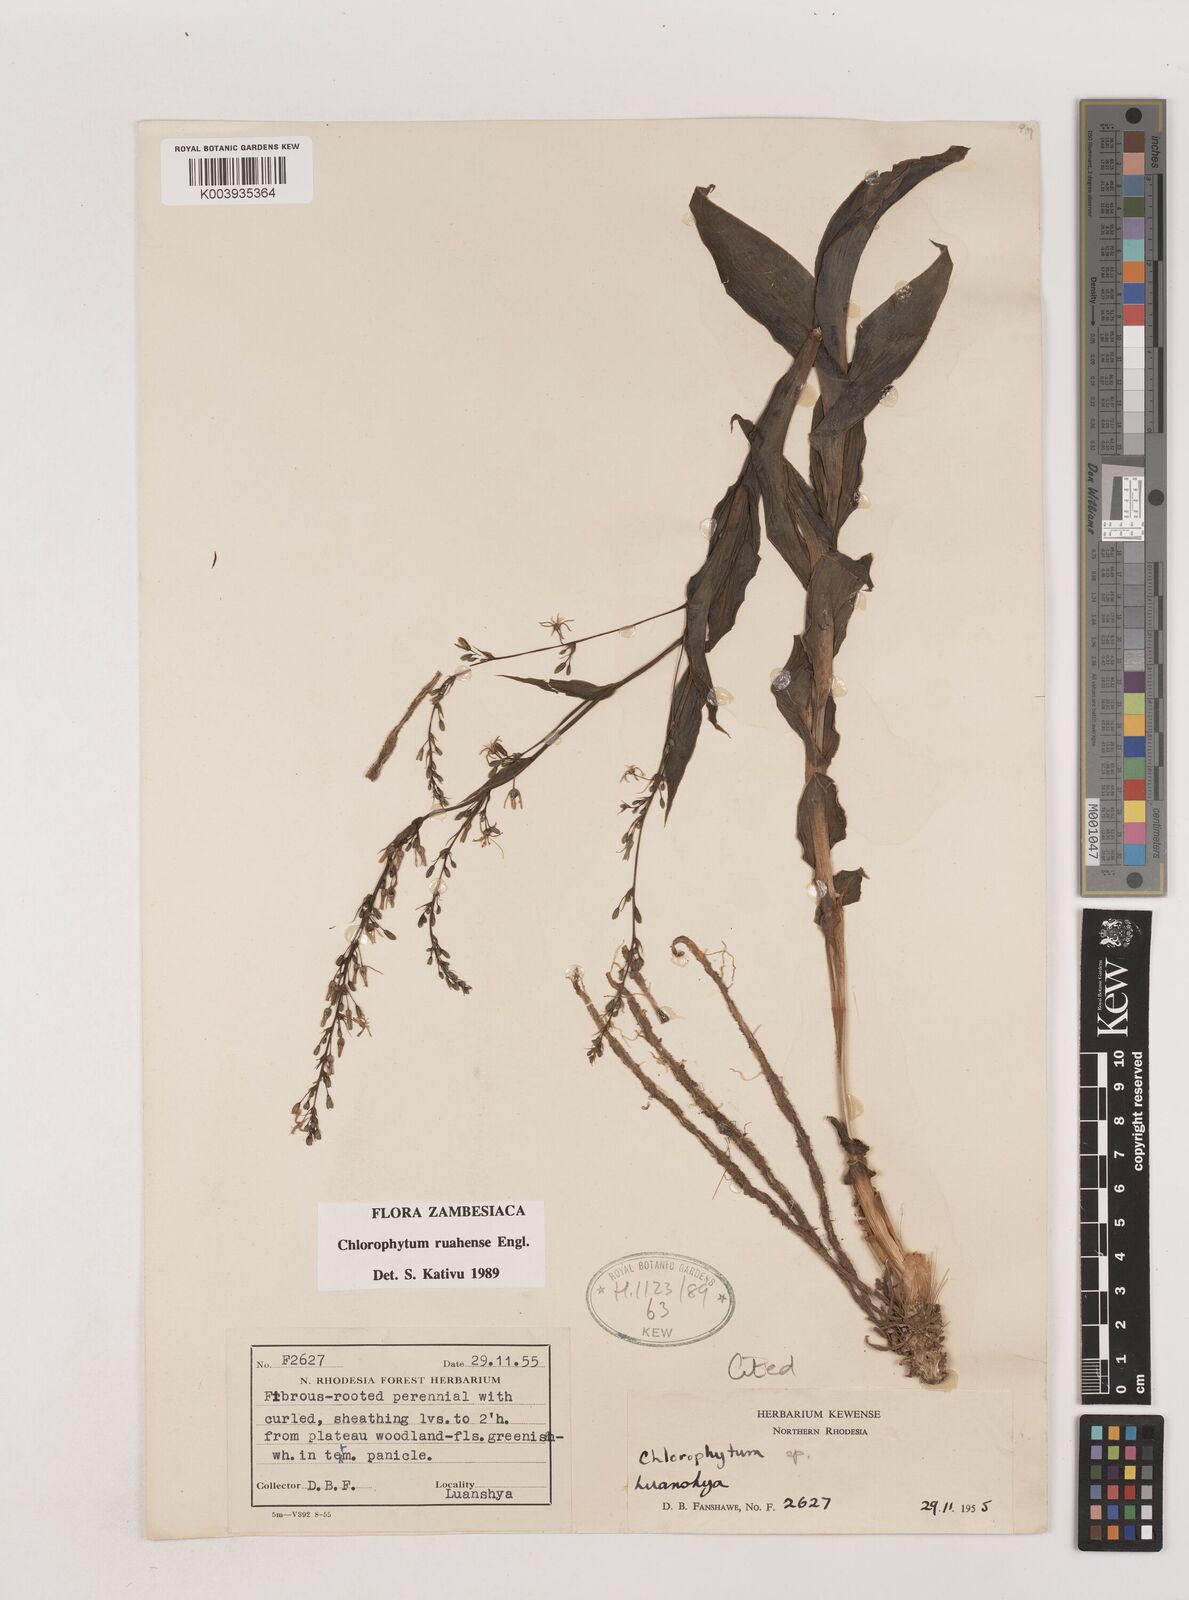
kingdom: Plantae
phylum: Tracheophyta
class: Liliopsida
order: Asparagales
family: Asparagaceae
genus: Chlorophytum
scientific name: Chlorophytum ruahense
